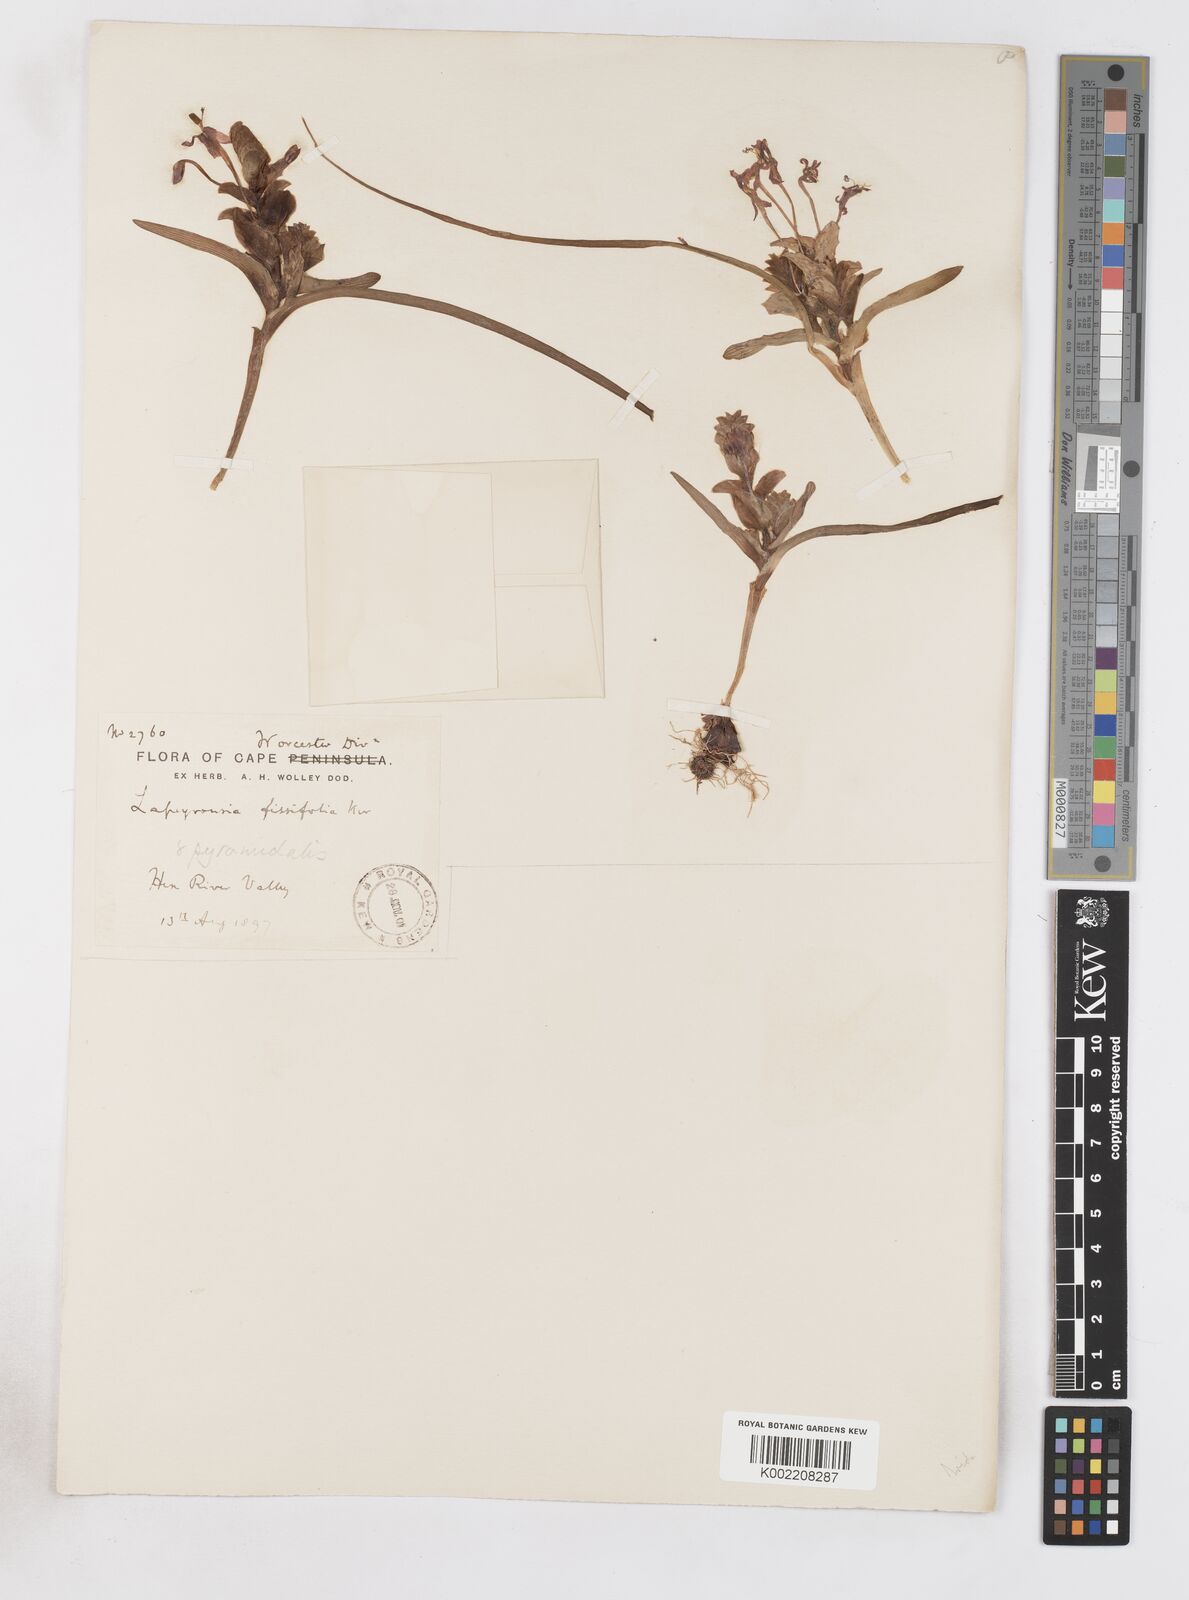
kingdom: Plantae
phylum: Tracheophyta
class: Liliopsida
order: Asparagales
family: Iridaceae
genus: Lapeirousia
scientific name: Lapeirousia pyramidalis
